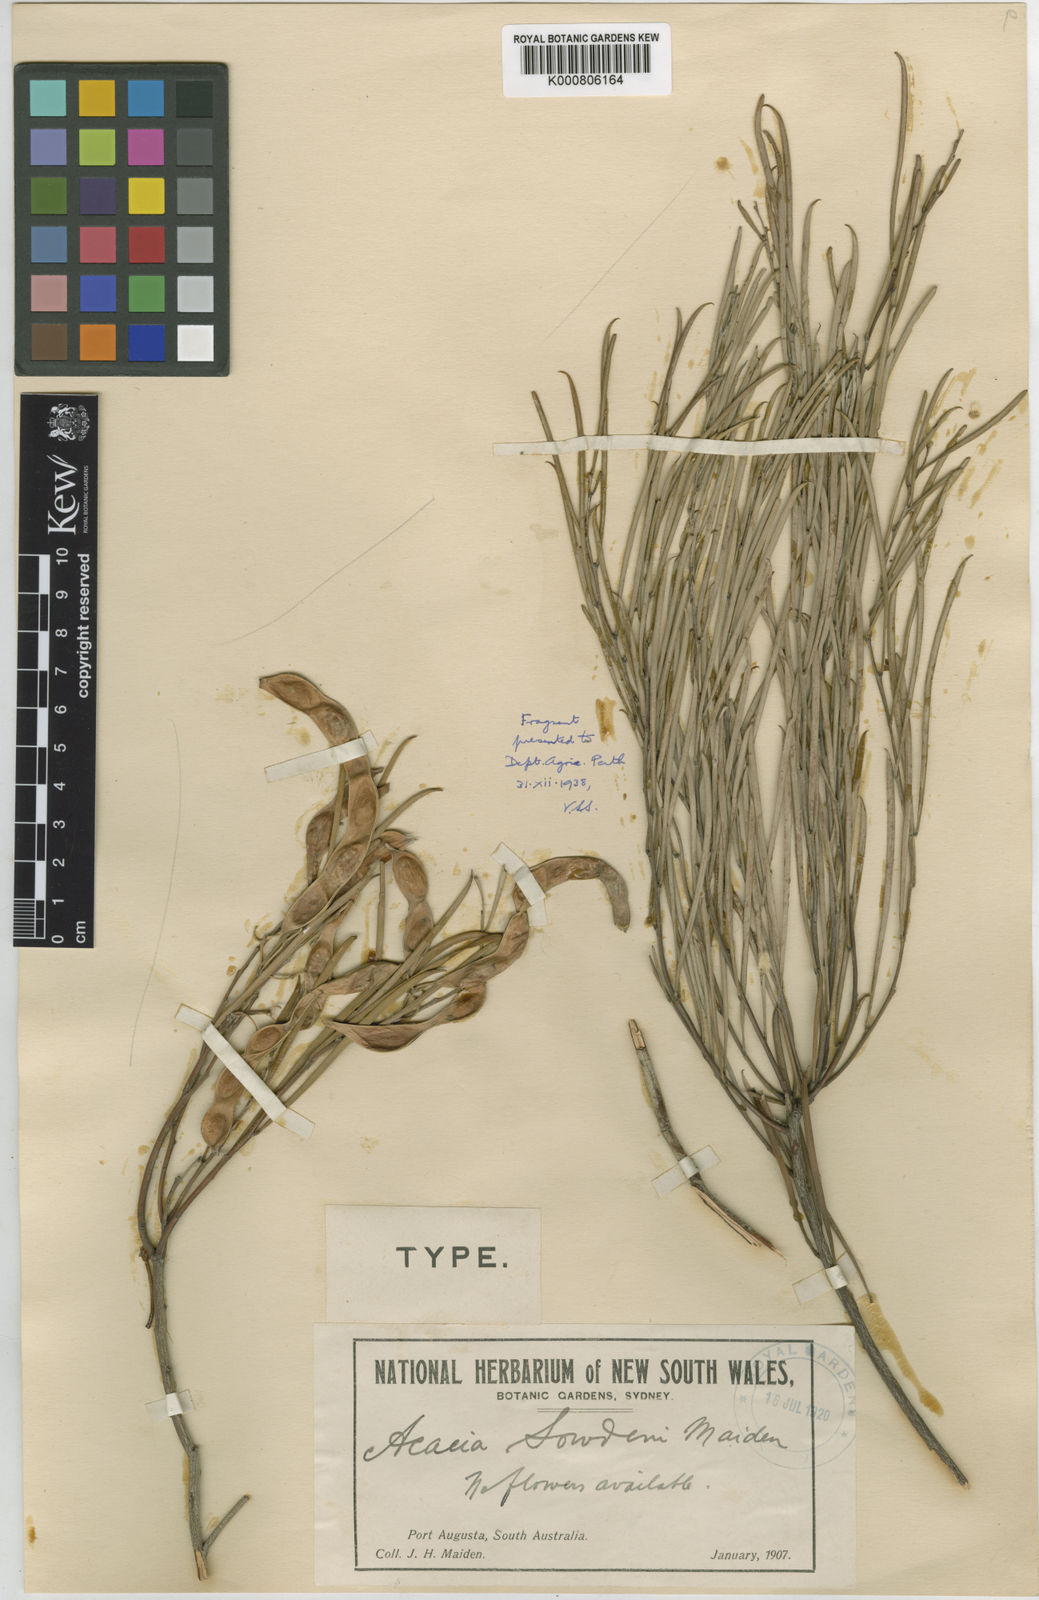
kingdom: Plantae
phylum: Tracheophyta
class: Magnoliopsida
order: Fabales
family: Fabaceae
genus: Acacia
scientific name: Acacia papyrocarpa
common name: Western myall
